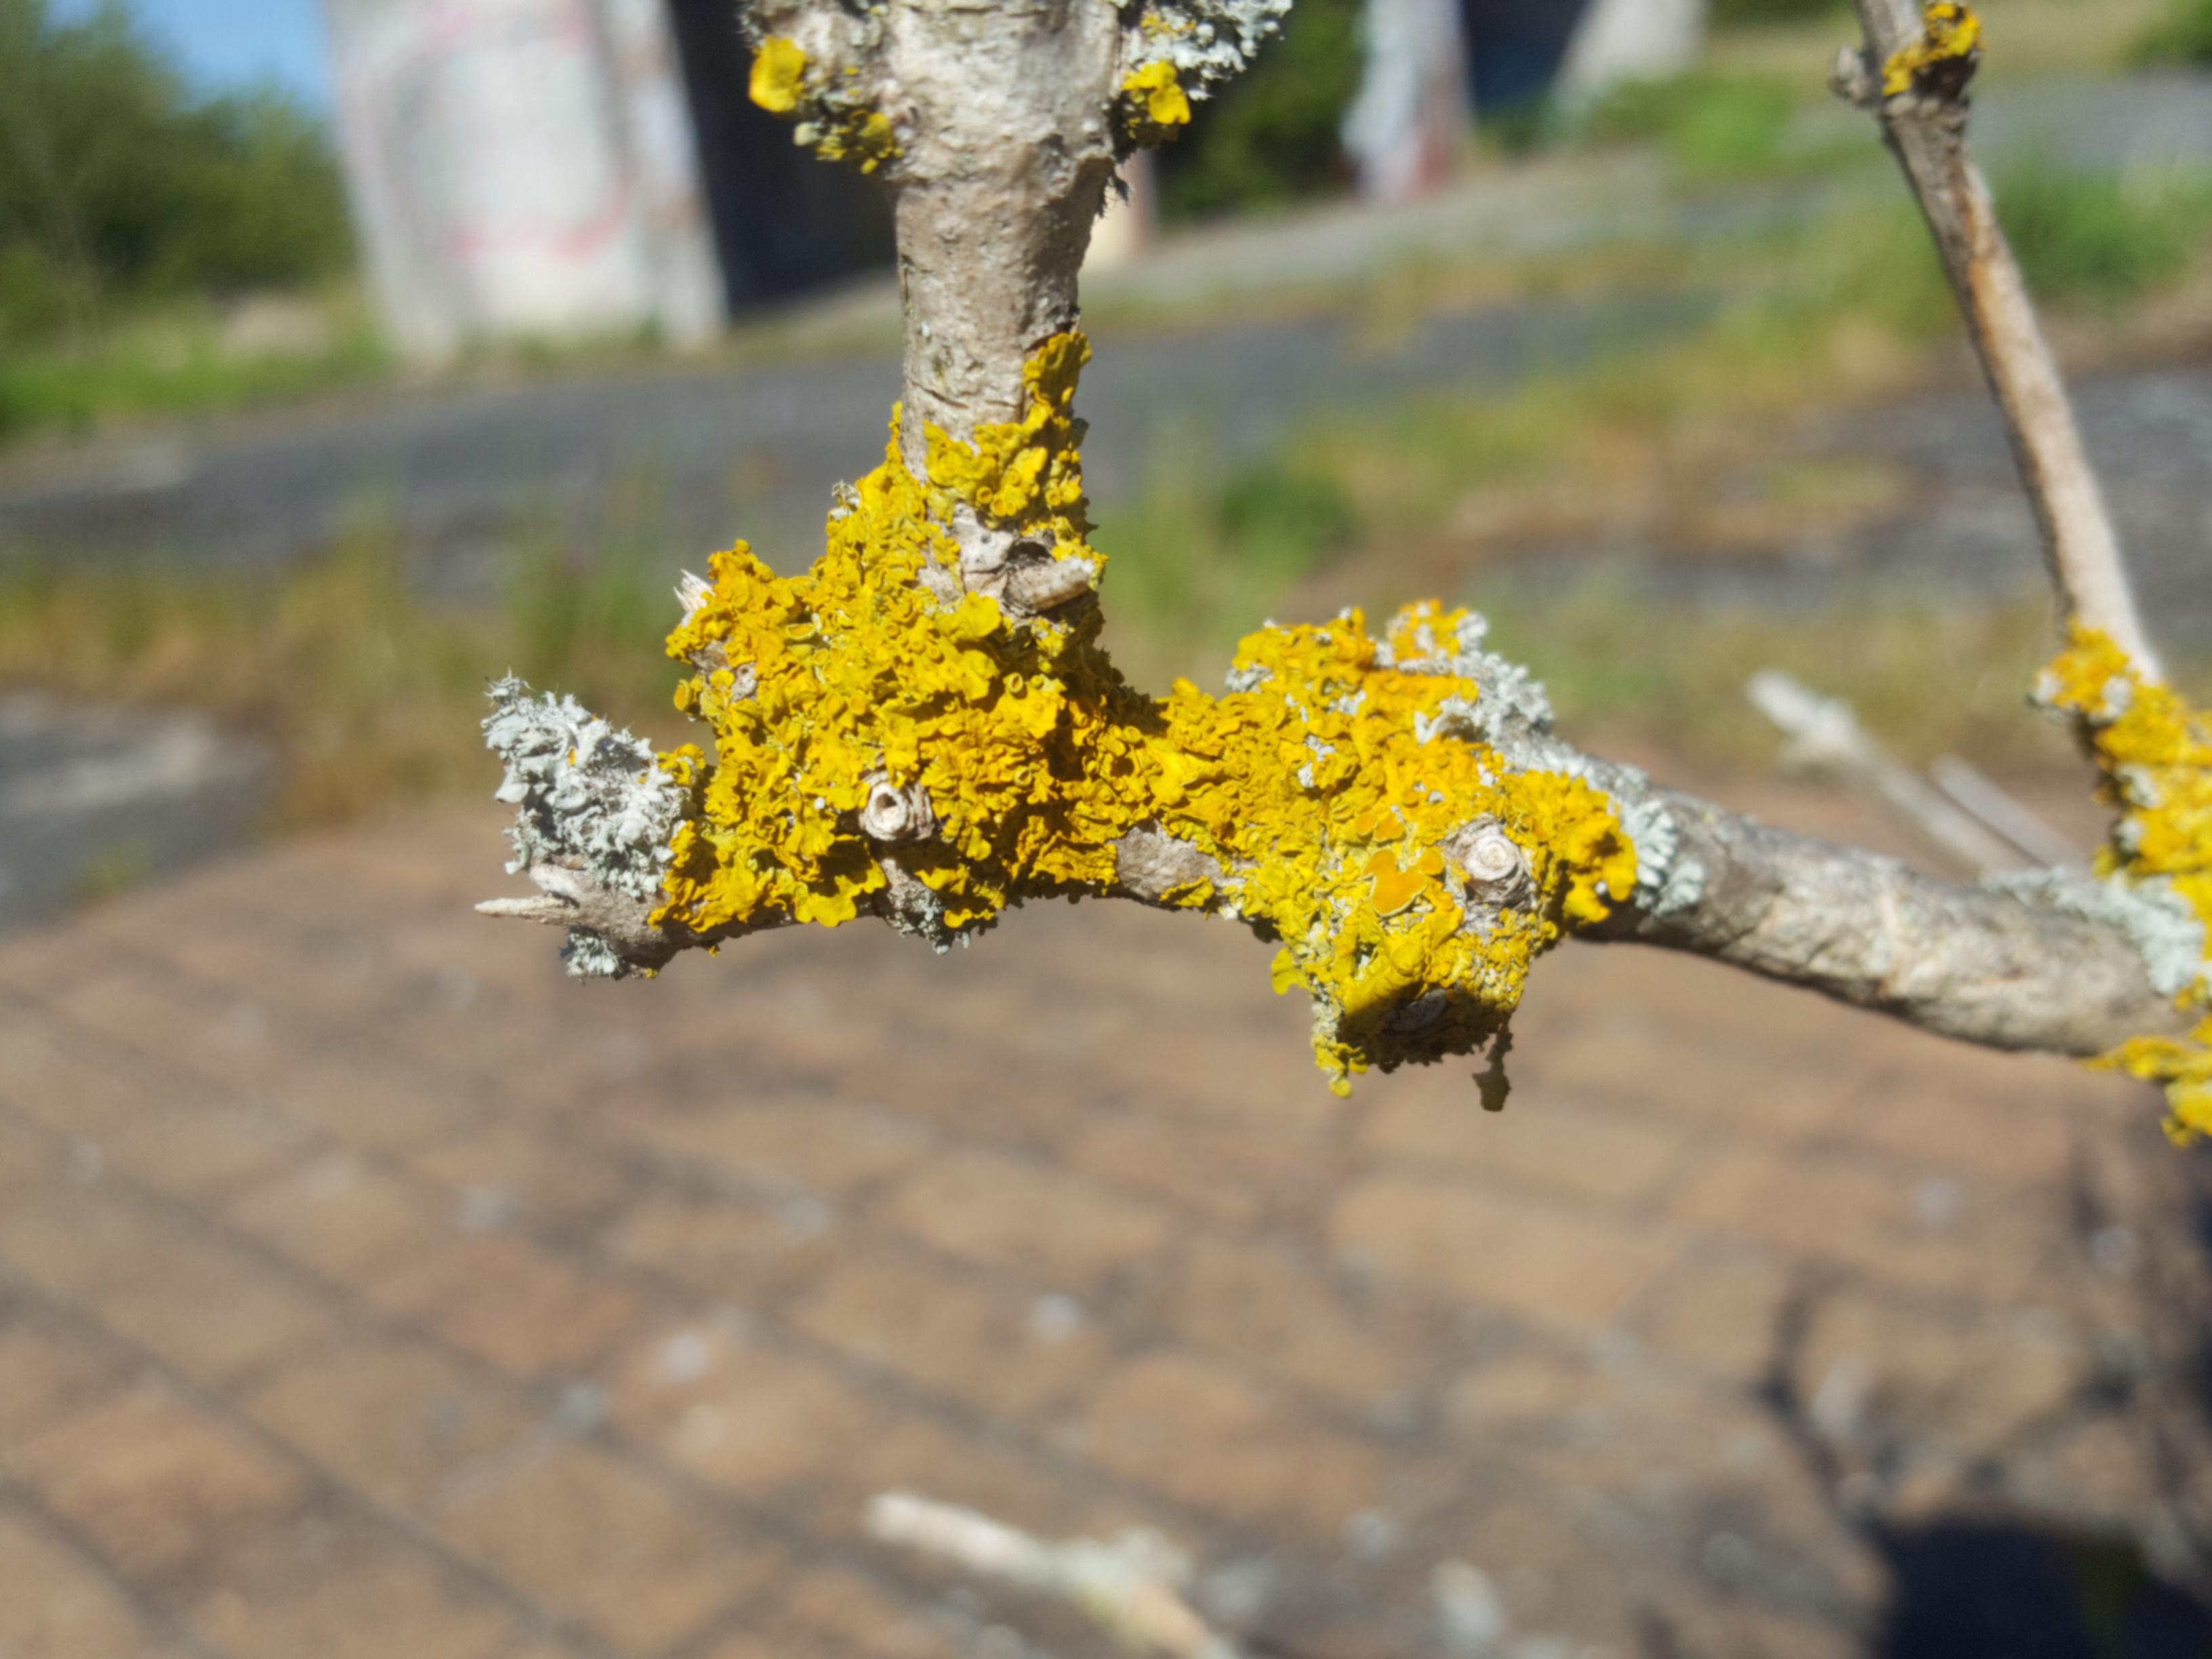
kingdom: Fungi
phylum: Ascomycota
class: Lecanoromycetes
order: Teloschistales
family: Teloschistaceae
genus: Xanthoria
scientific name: Xanthoria parietina
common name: almindelig væggelav
